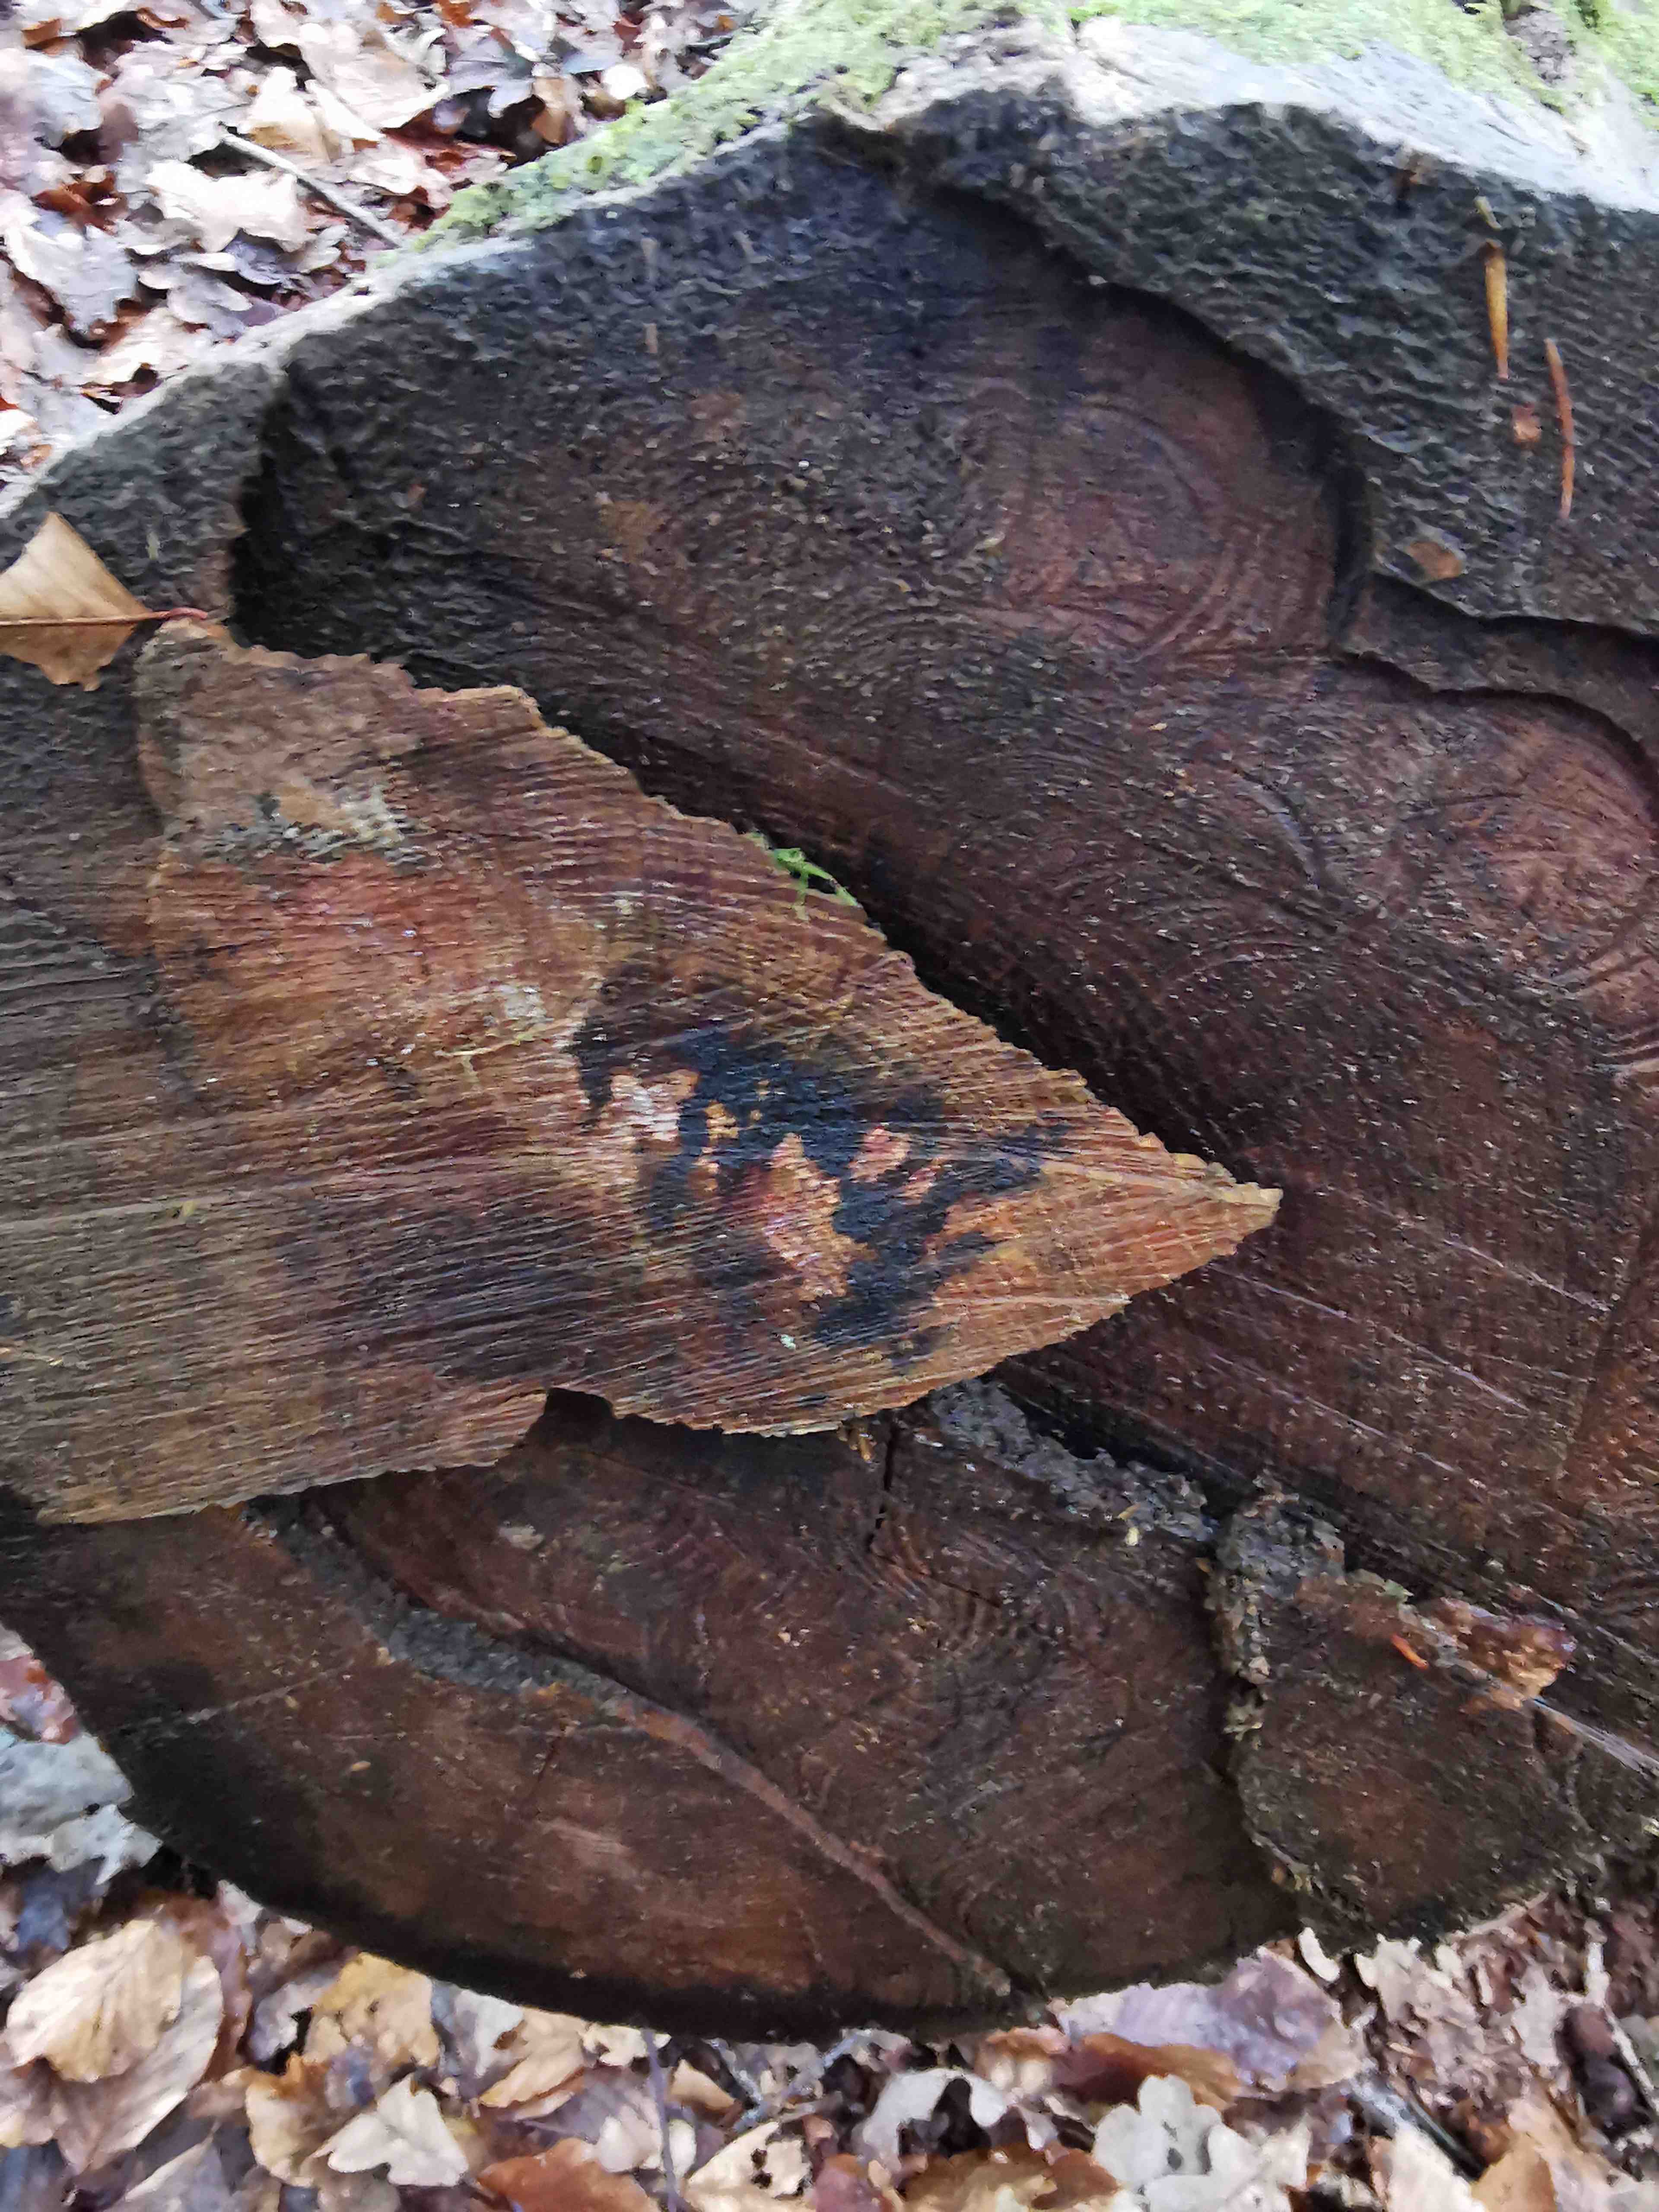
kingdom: Fungi
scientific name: Fungi
